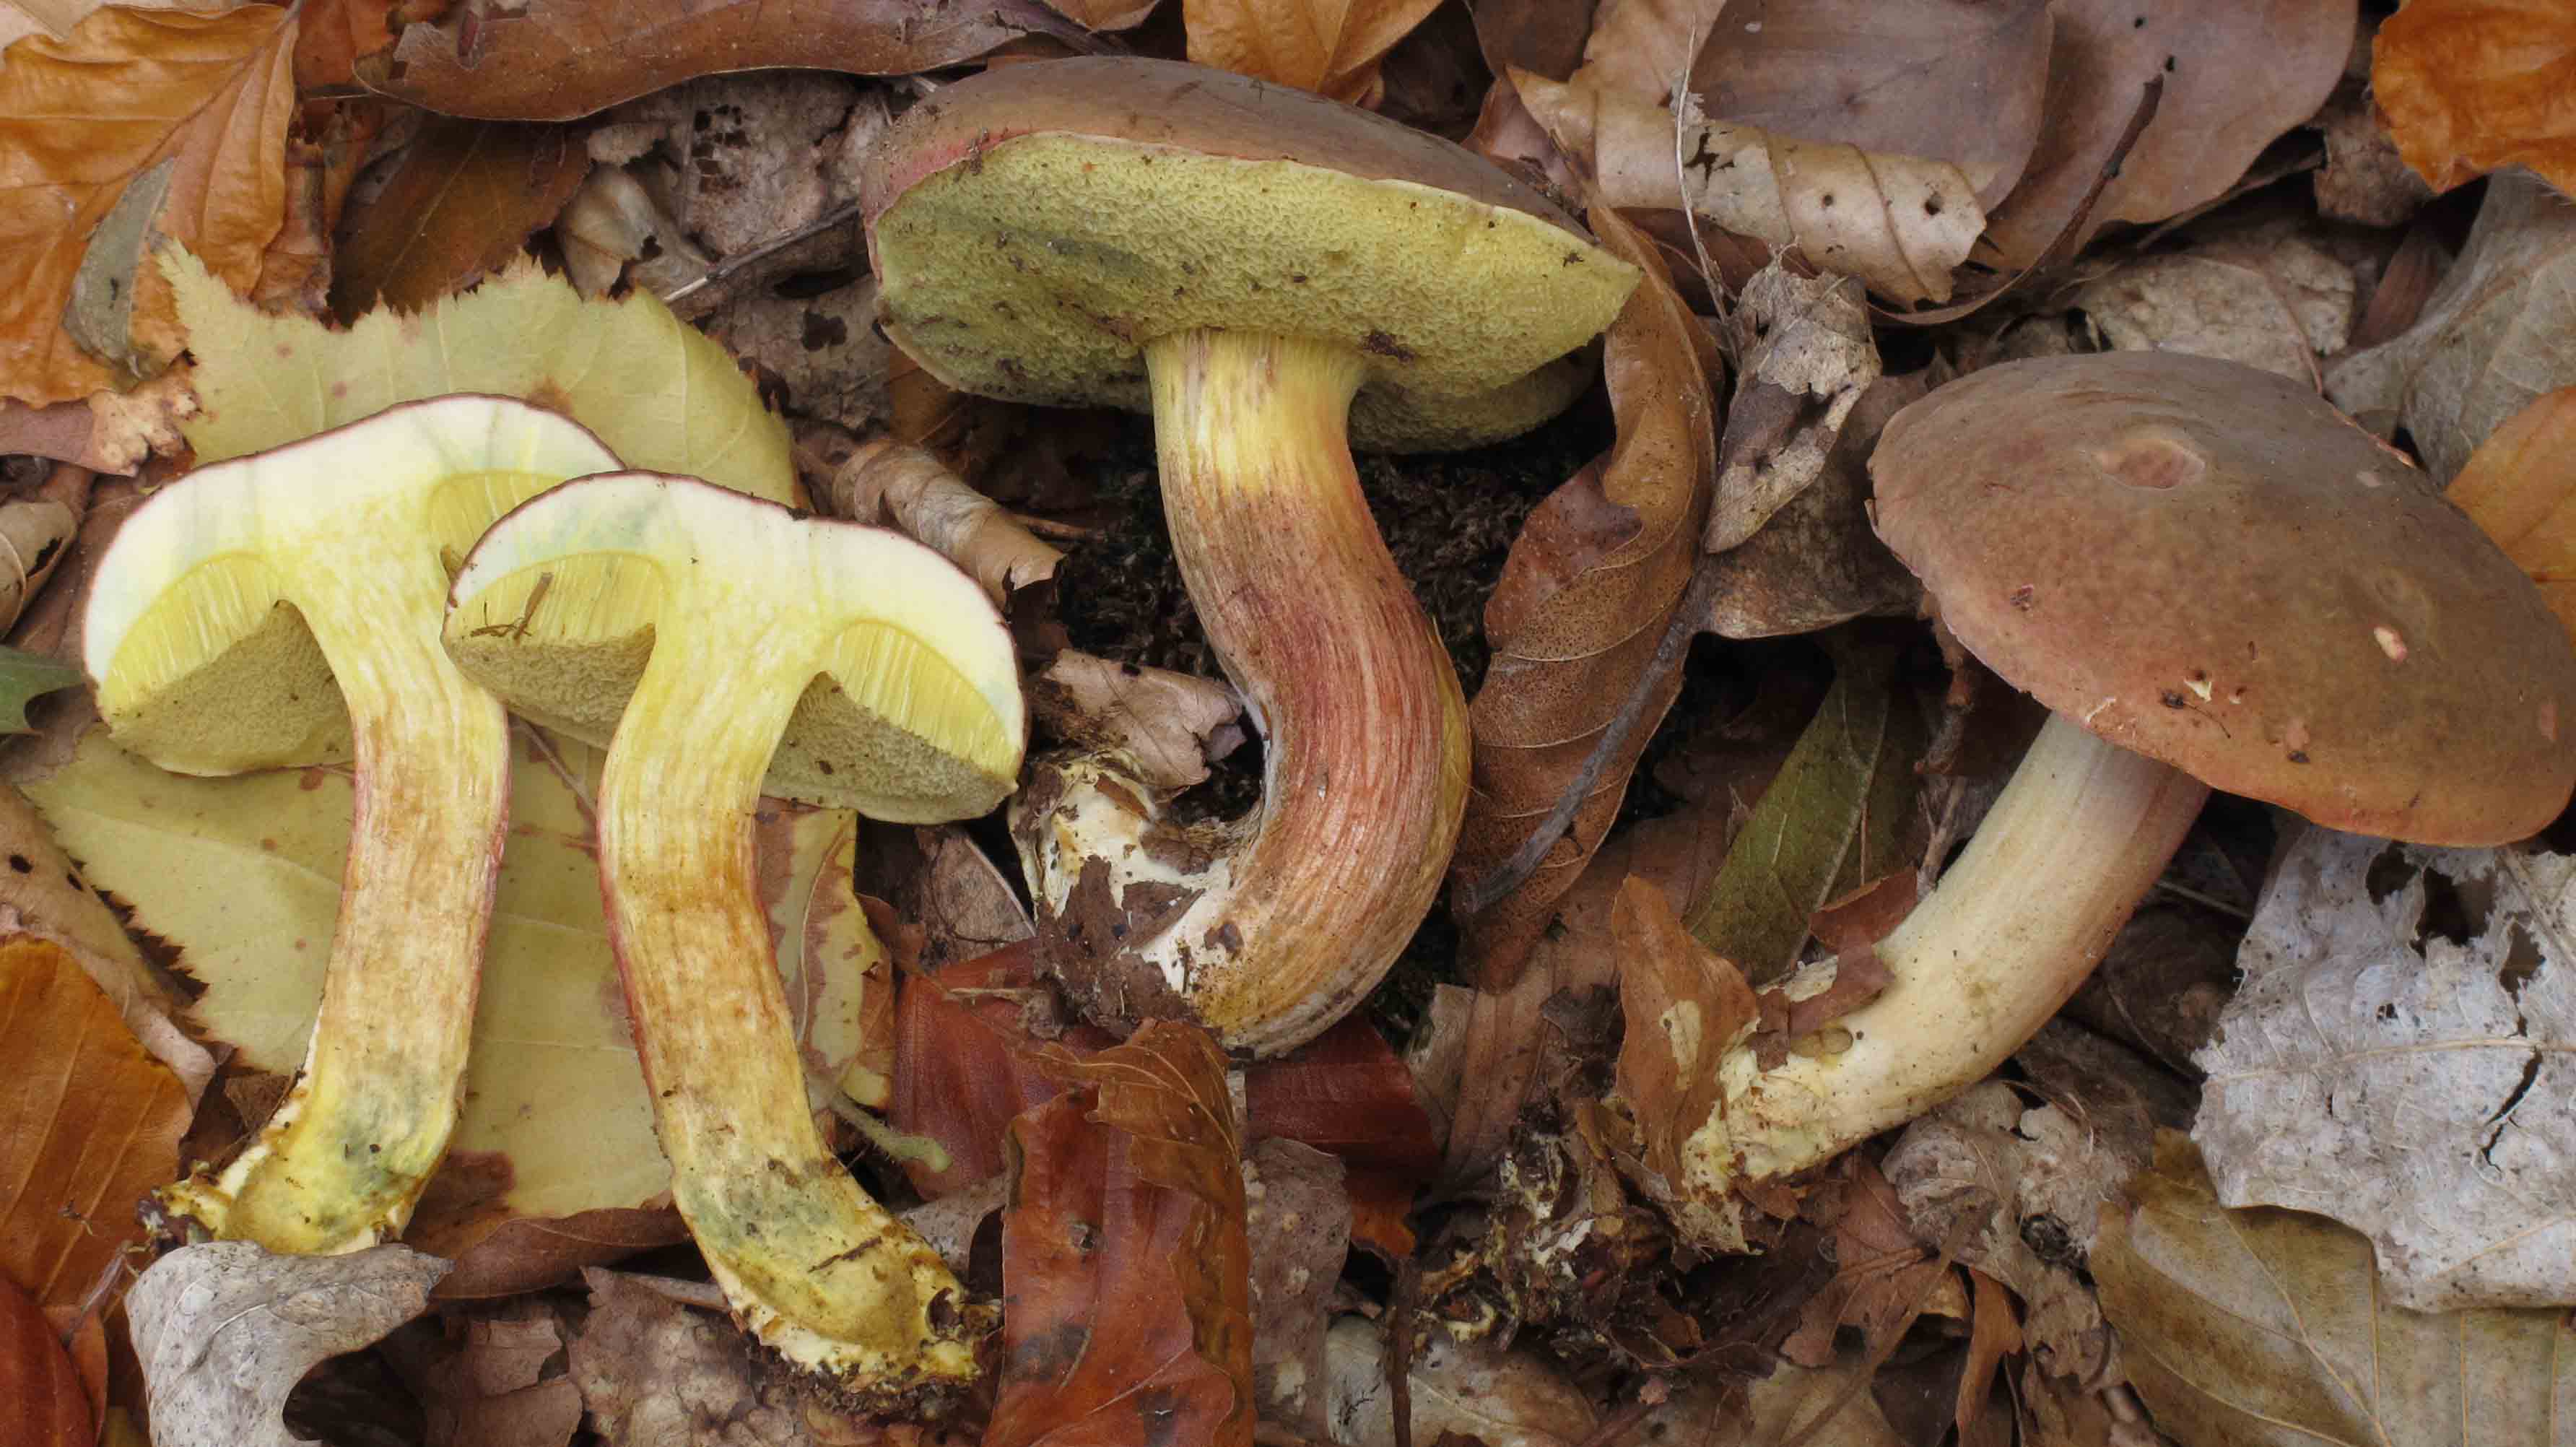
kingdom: Fungi
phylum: Basidiomycota
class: Agaricomycetes
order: Boletales
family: Boletaceae
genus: Xerocomellus
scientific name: Xerocomellus pruinatus
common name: dugget rørhat
